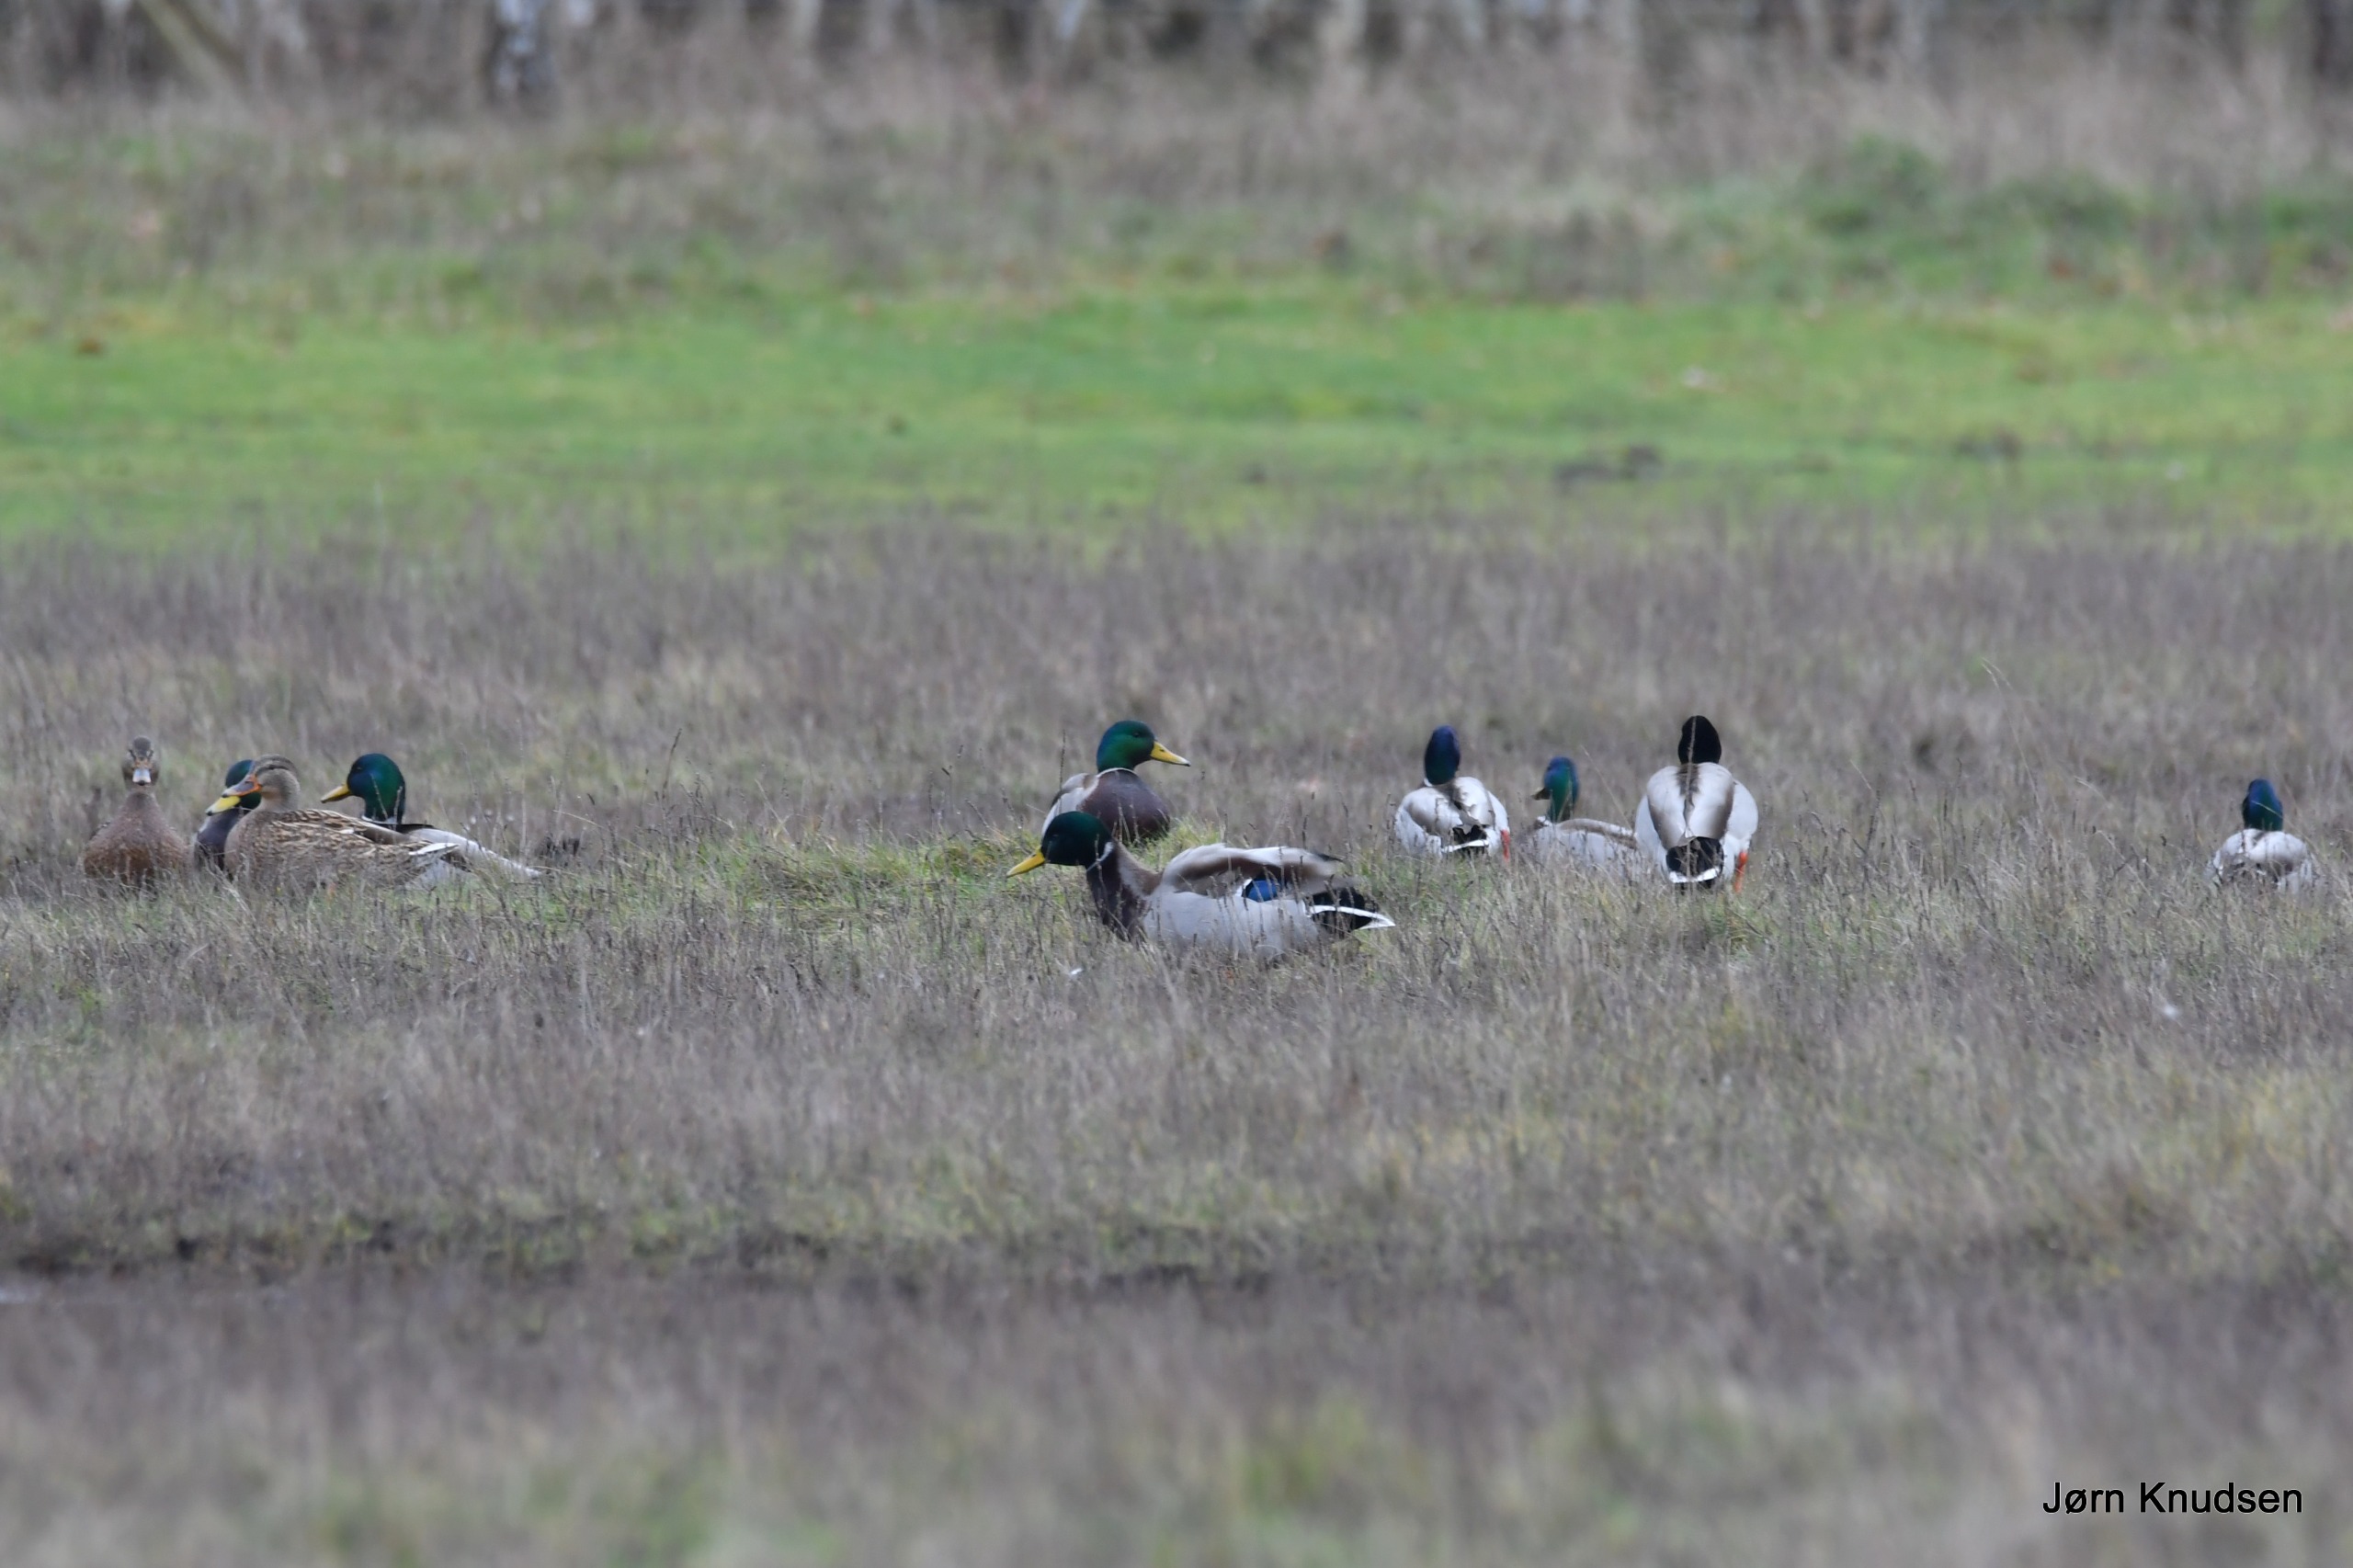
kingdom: Animalia
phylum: Chordata
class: Aves
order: Anseriformes
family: Anatidae
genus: Anas
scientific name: Anas platyrhynchos
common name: Gråand
